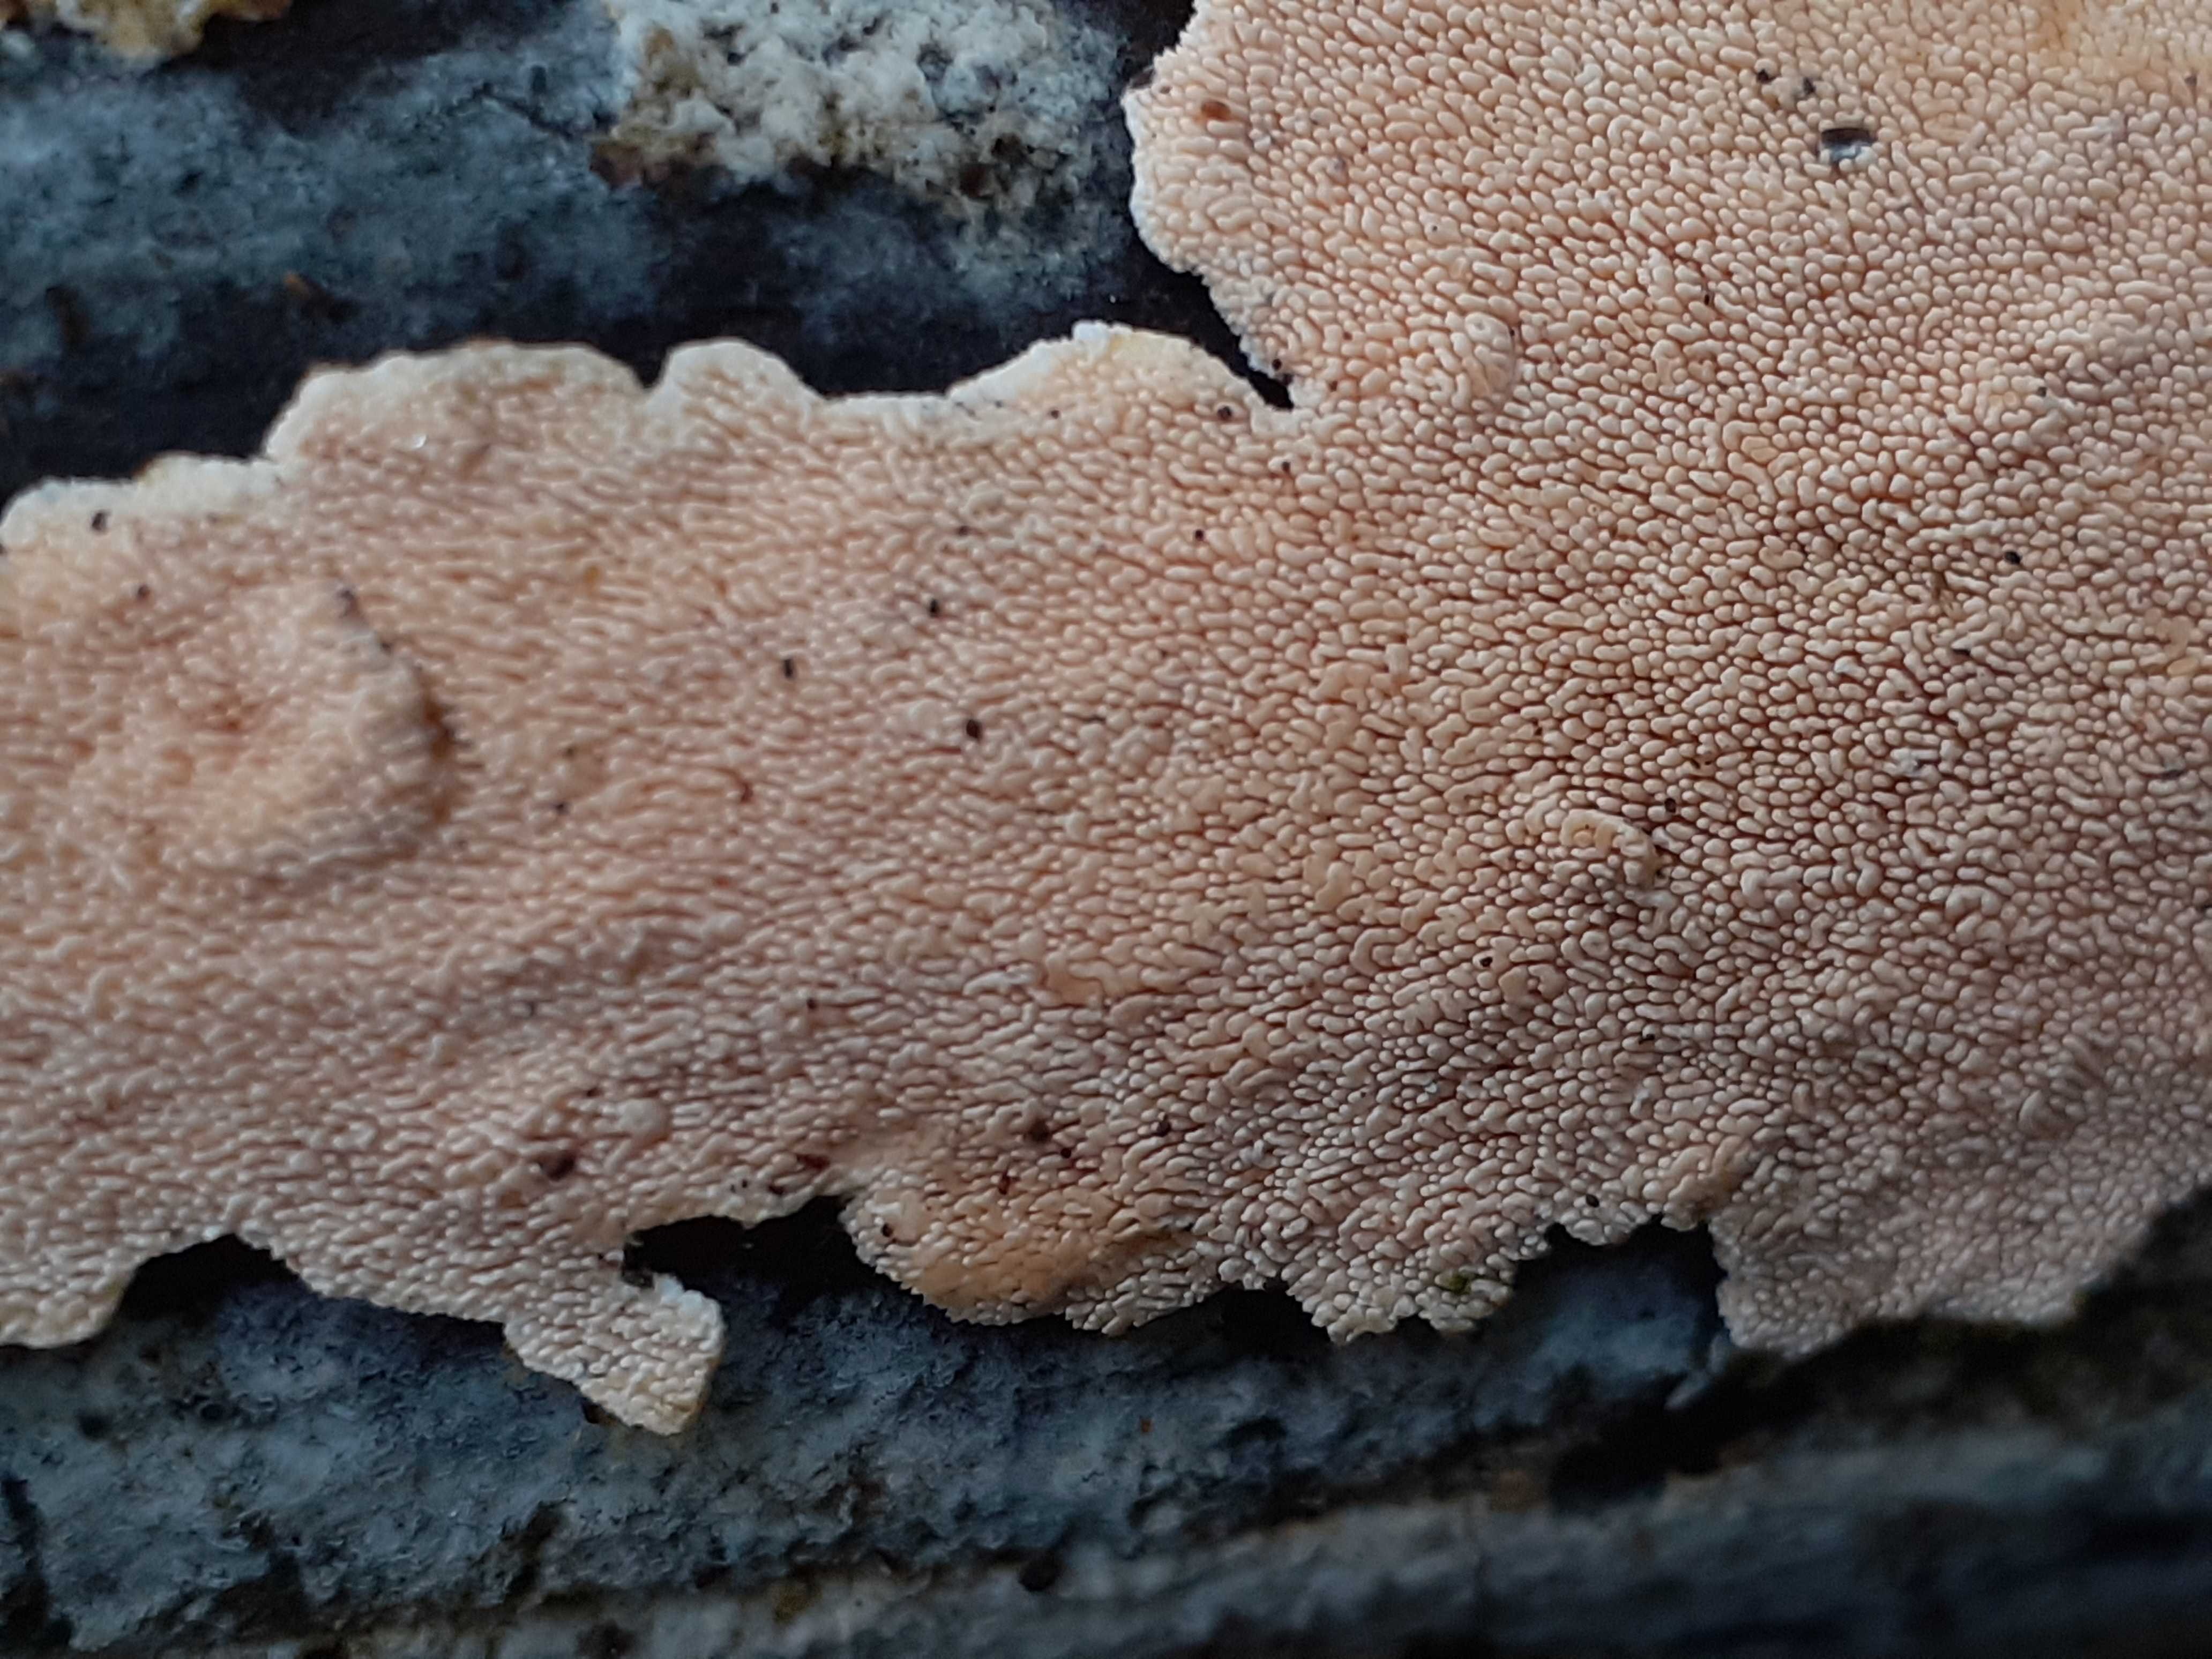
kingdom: Fungi
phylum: Basidiomycota
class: Agaricomycetes
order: Polyporales
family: Steccherinaceae
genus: Steccherinum
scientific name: Steccherinum ochraceum
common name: almindelig skønpig
